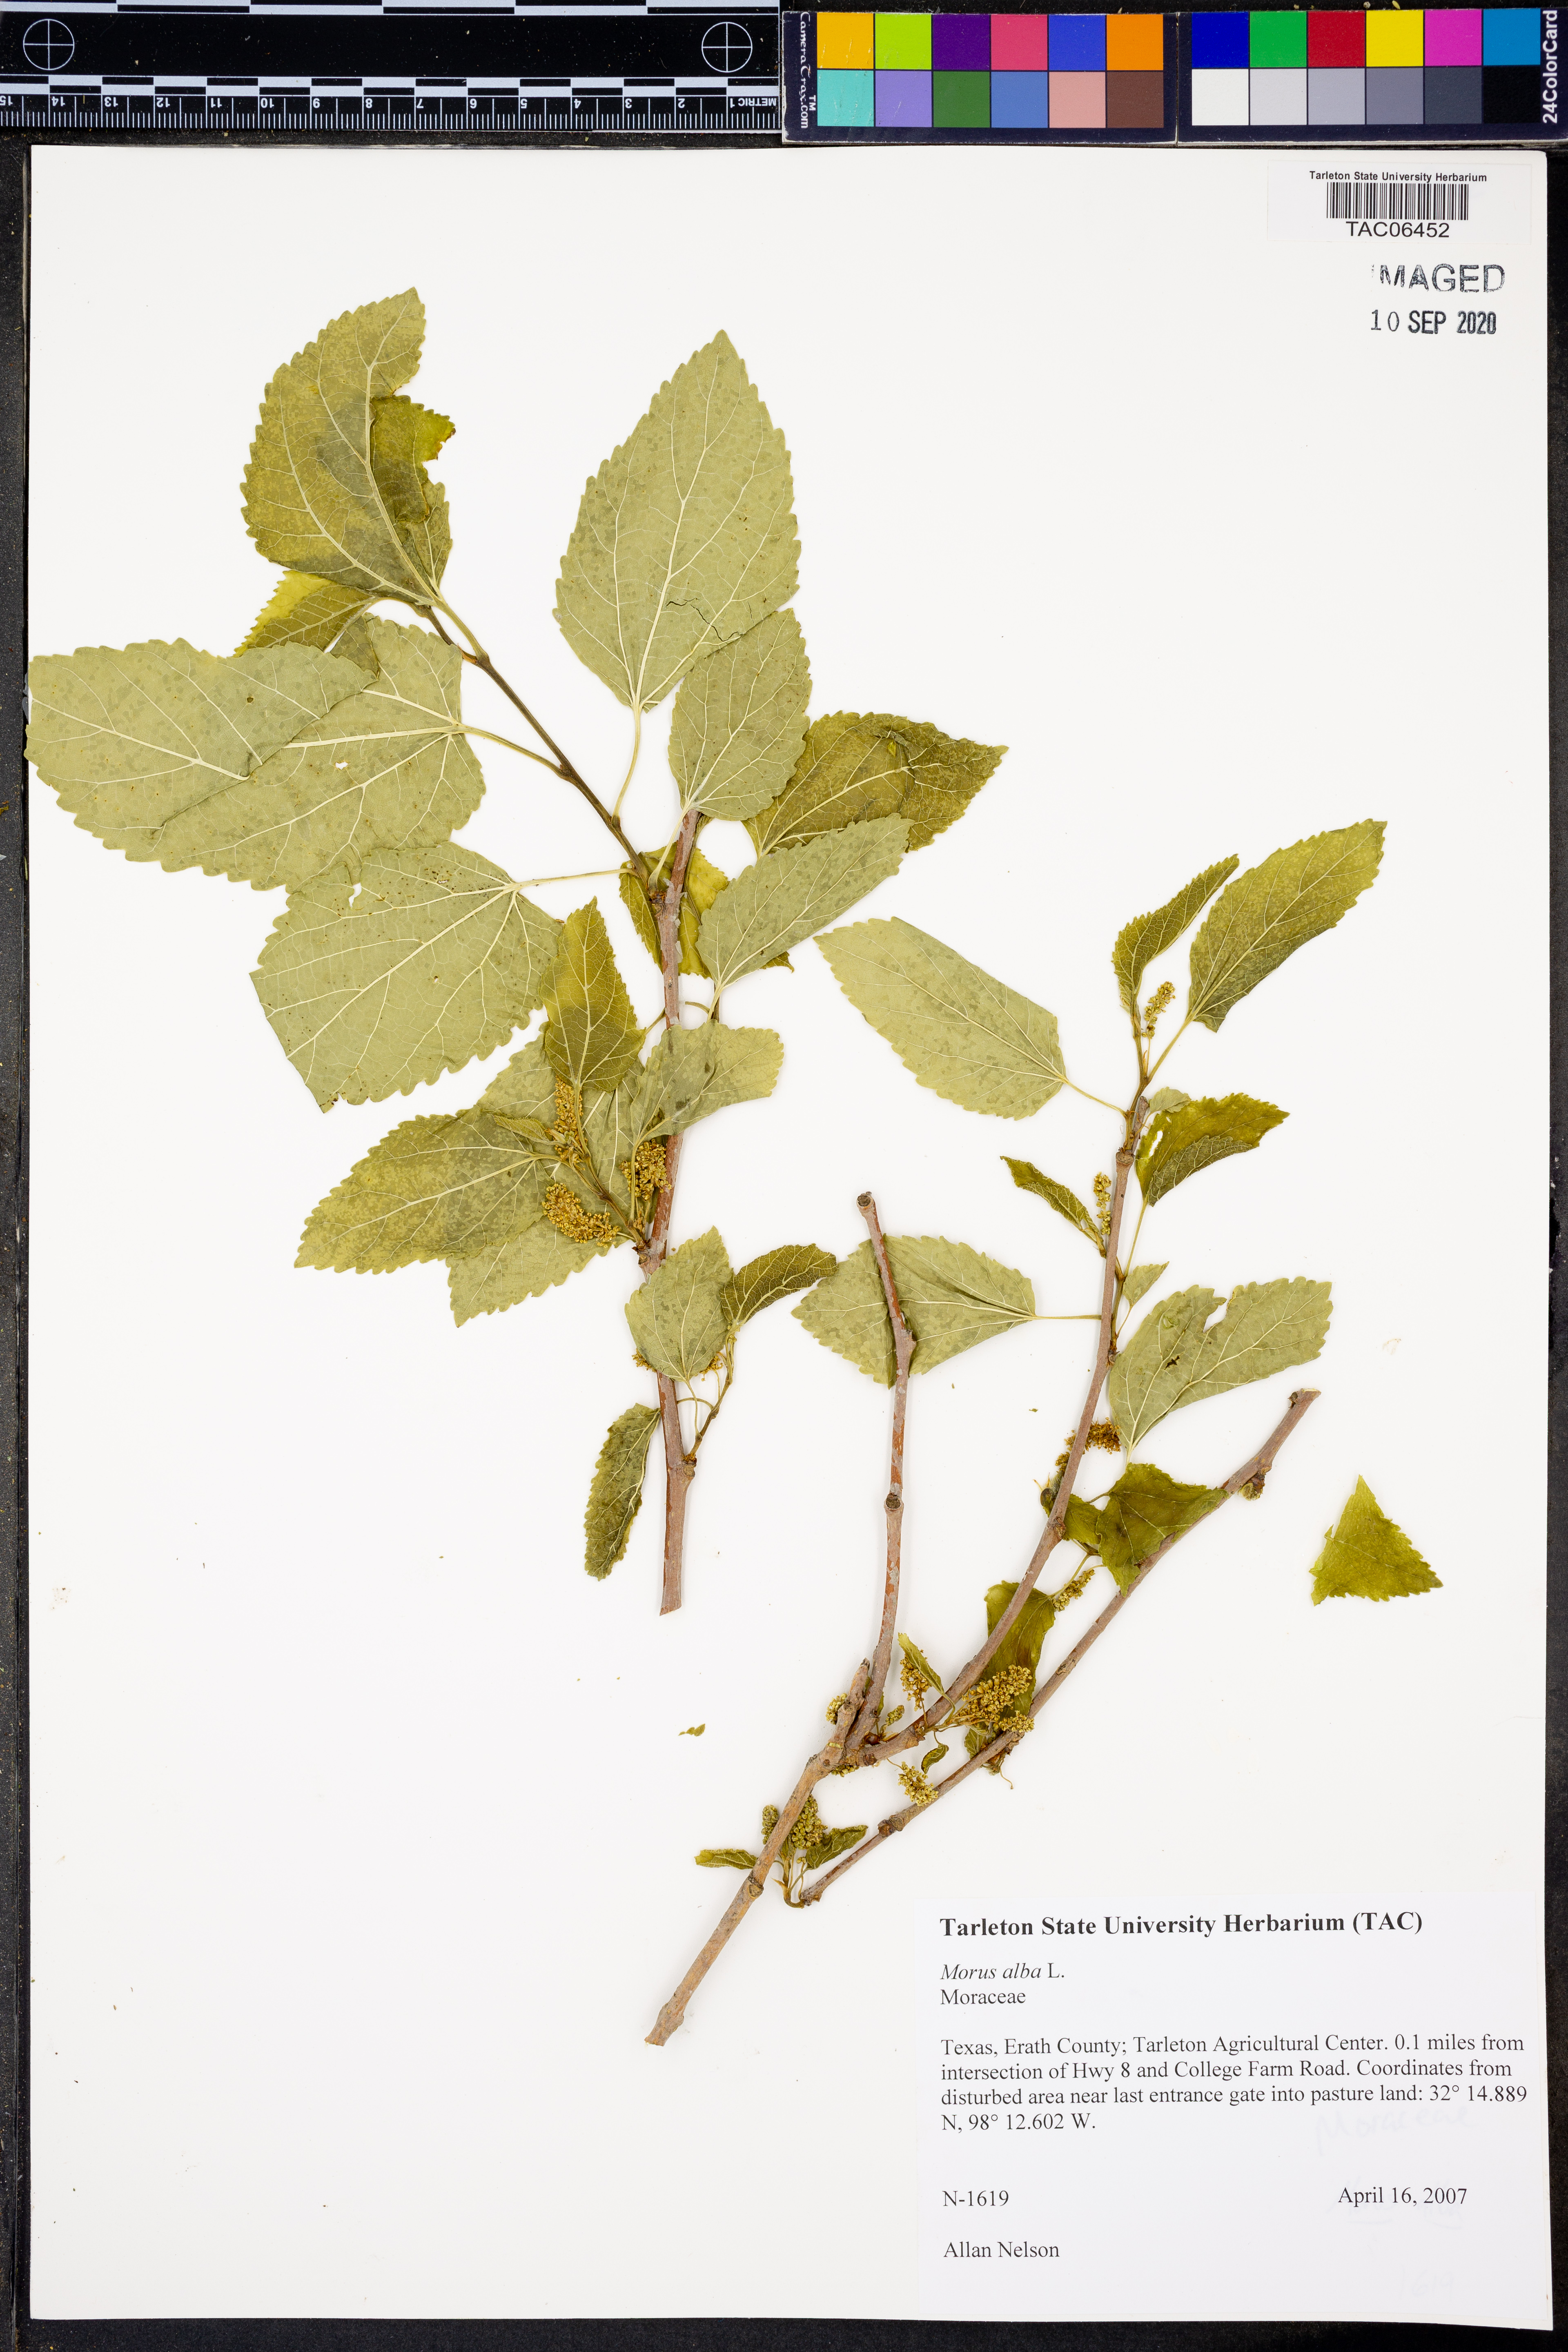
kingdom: Plantae
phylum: Tracheophyta
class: Magnoliopsida
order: Rosales
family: Moraceae
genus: Morus
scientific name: Morus alba
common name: White mulberry
